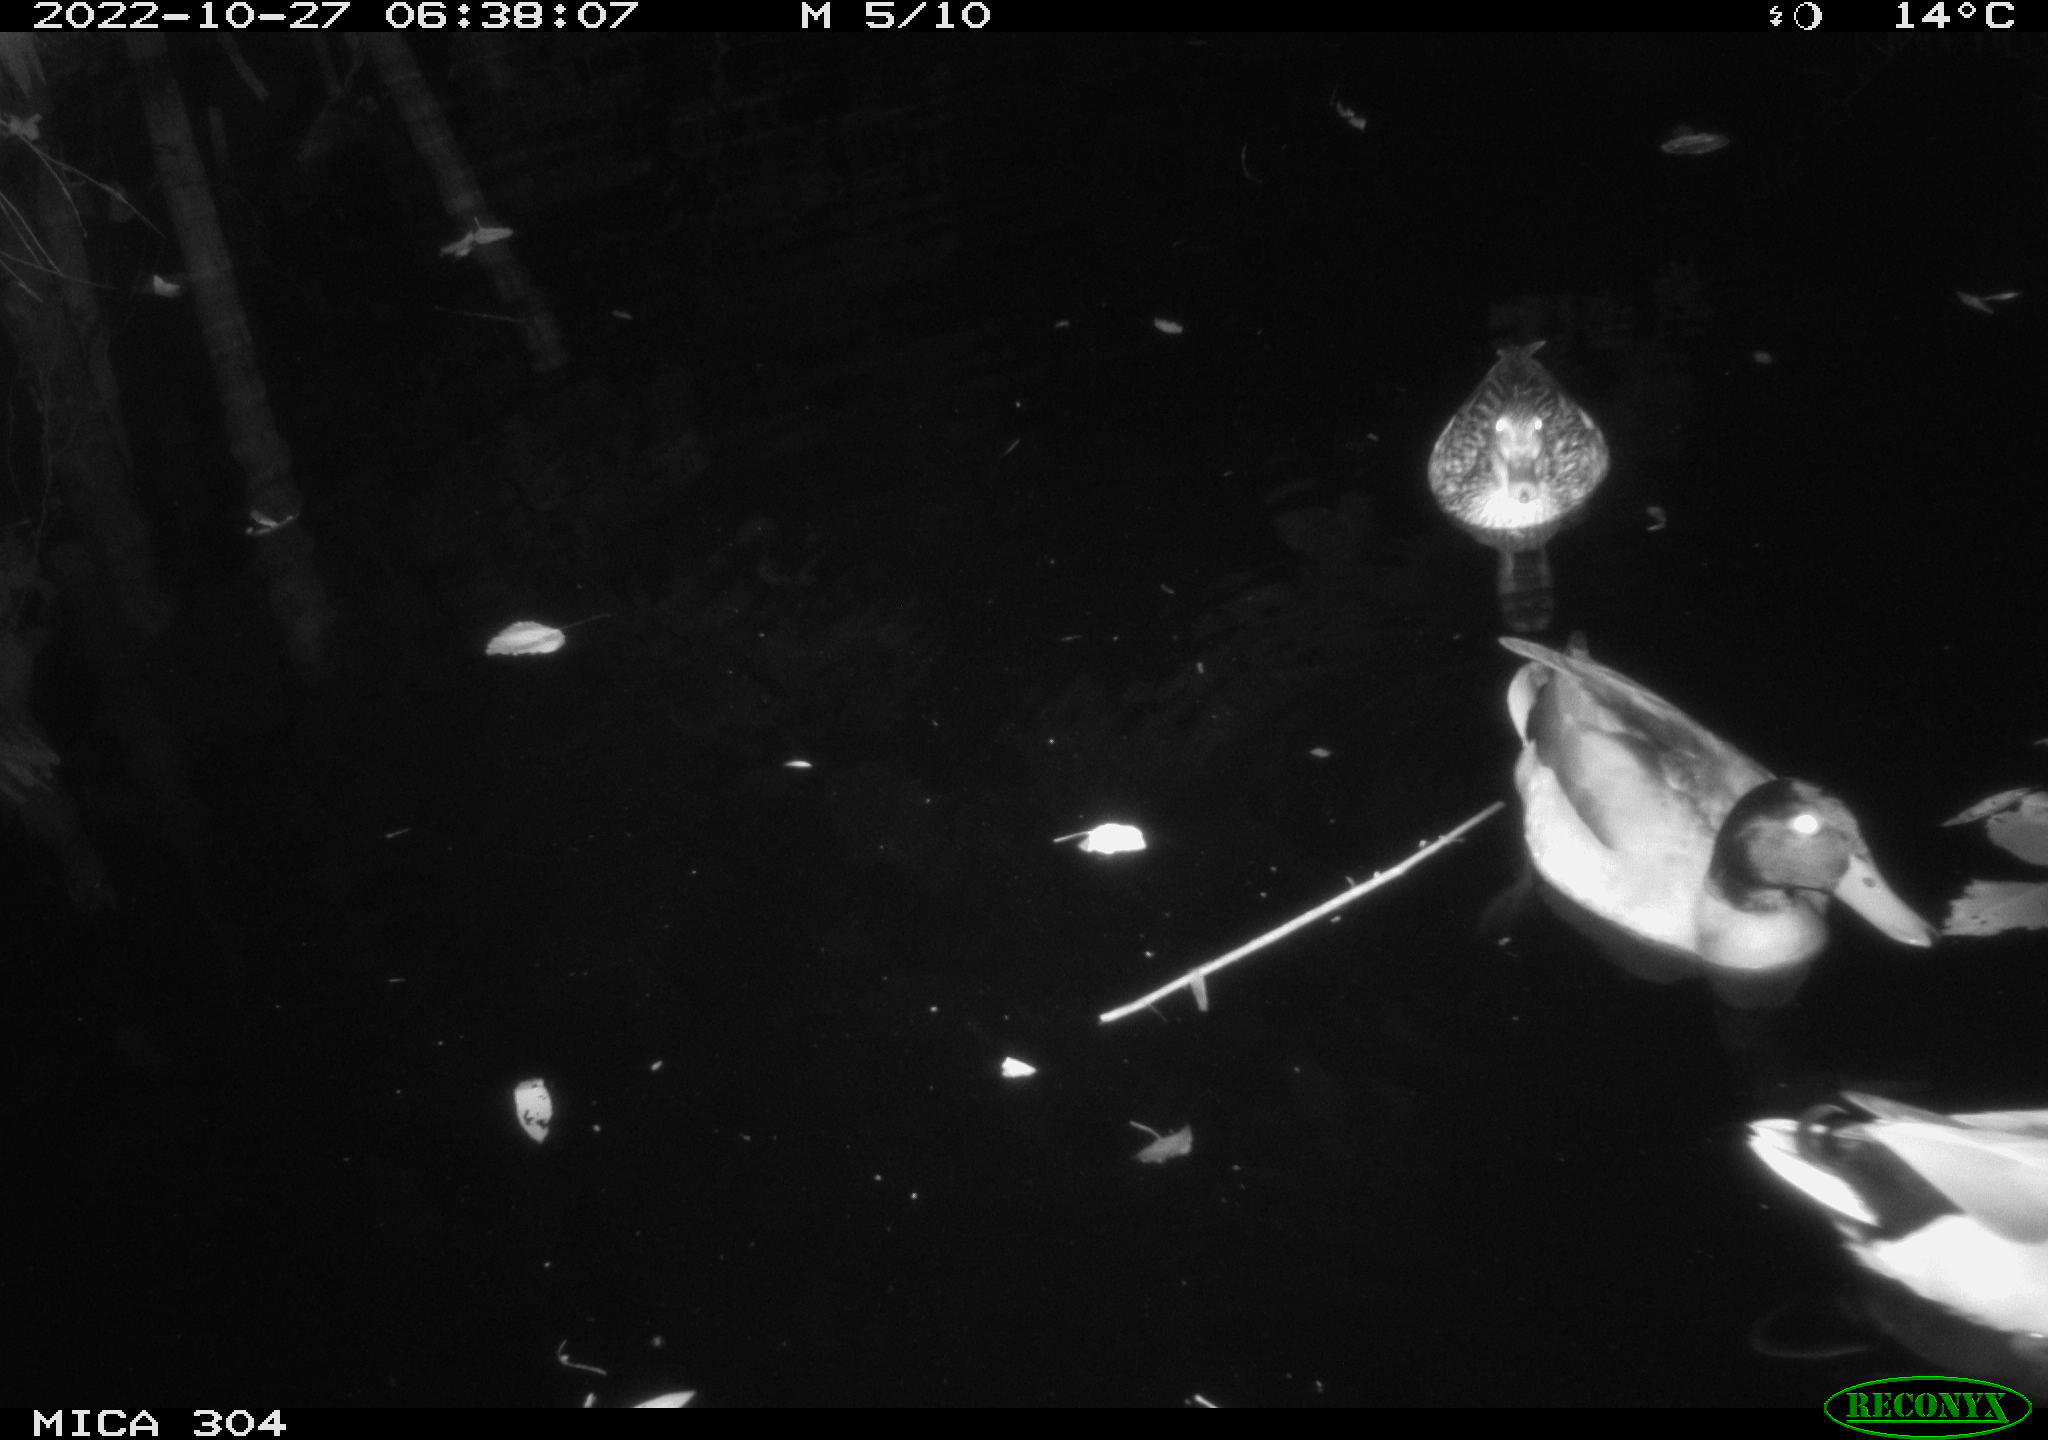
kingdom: Animalia
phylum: Chordata
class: Aves
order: Anseriformes
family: Anatidae
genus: Anas
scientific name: Anas
